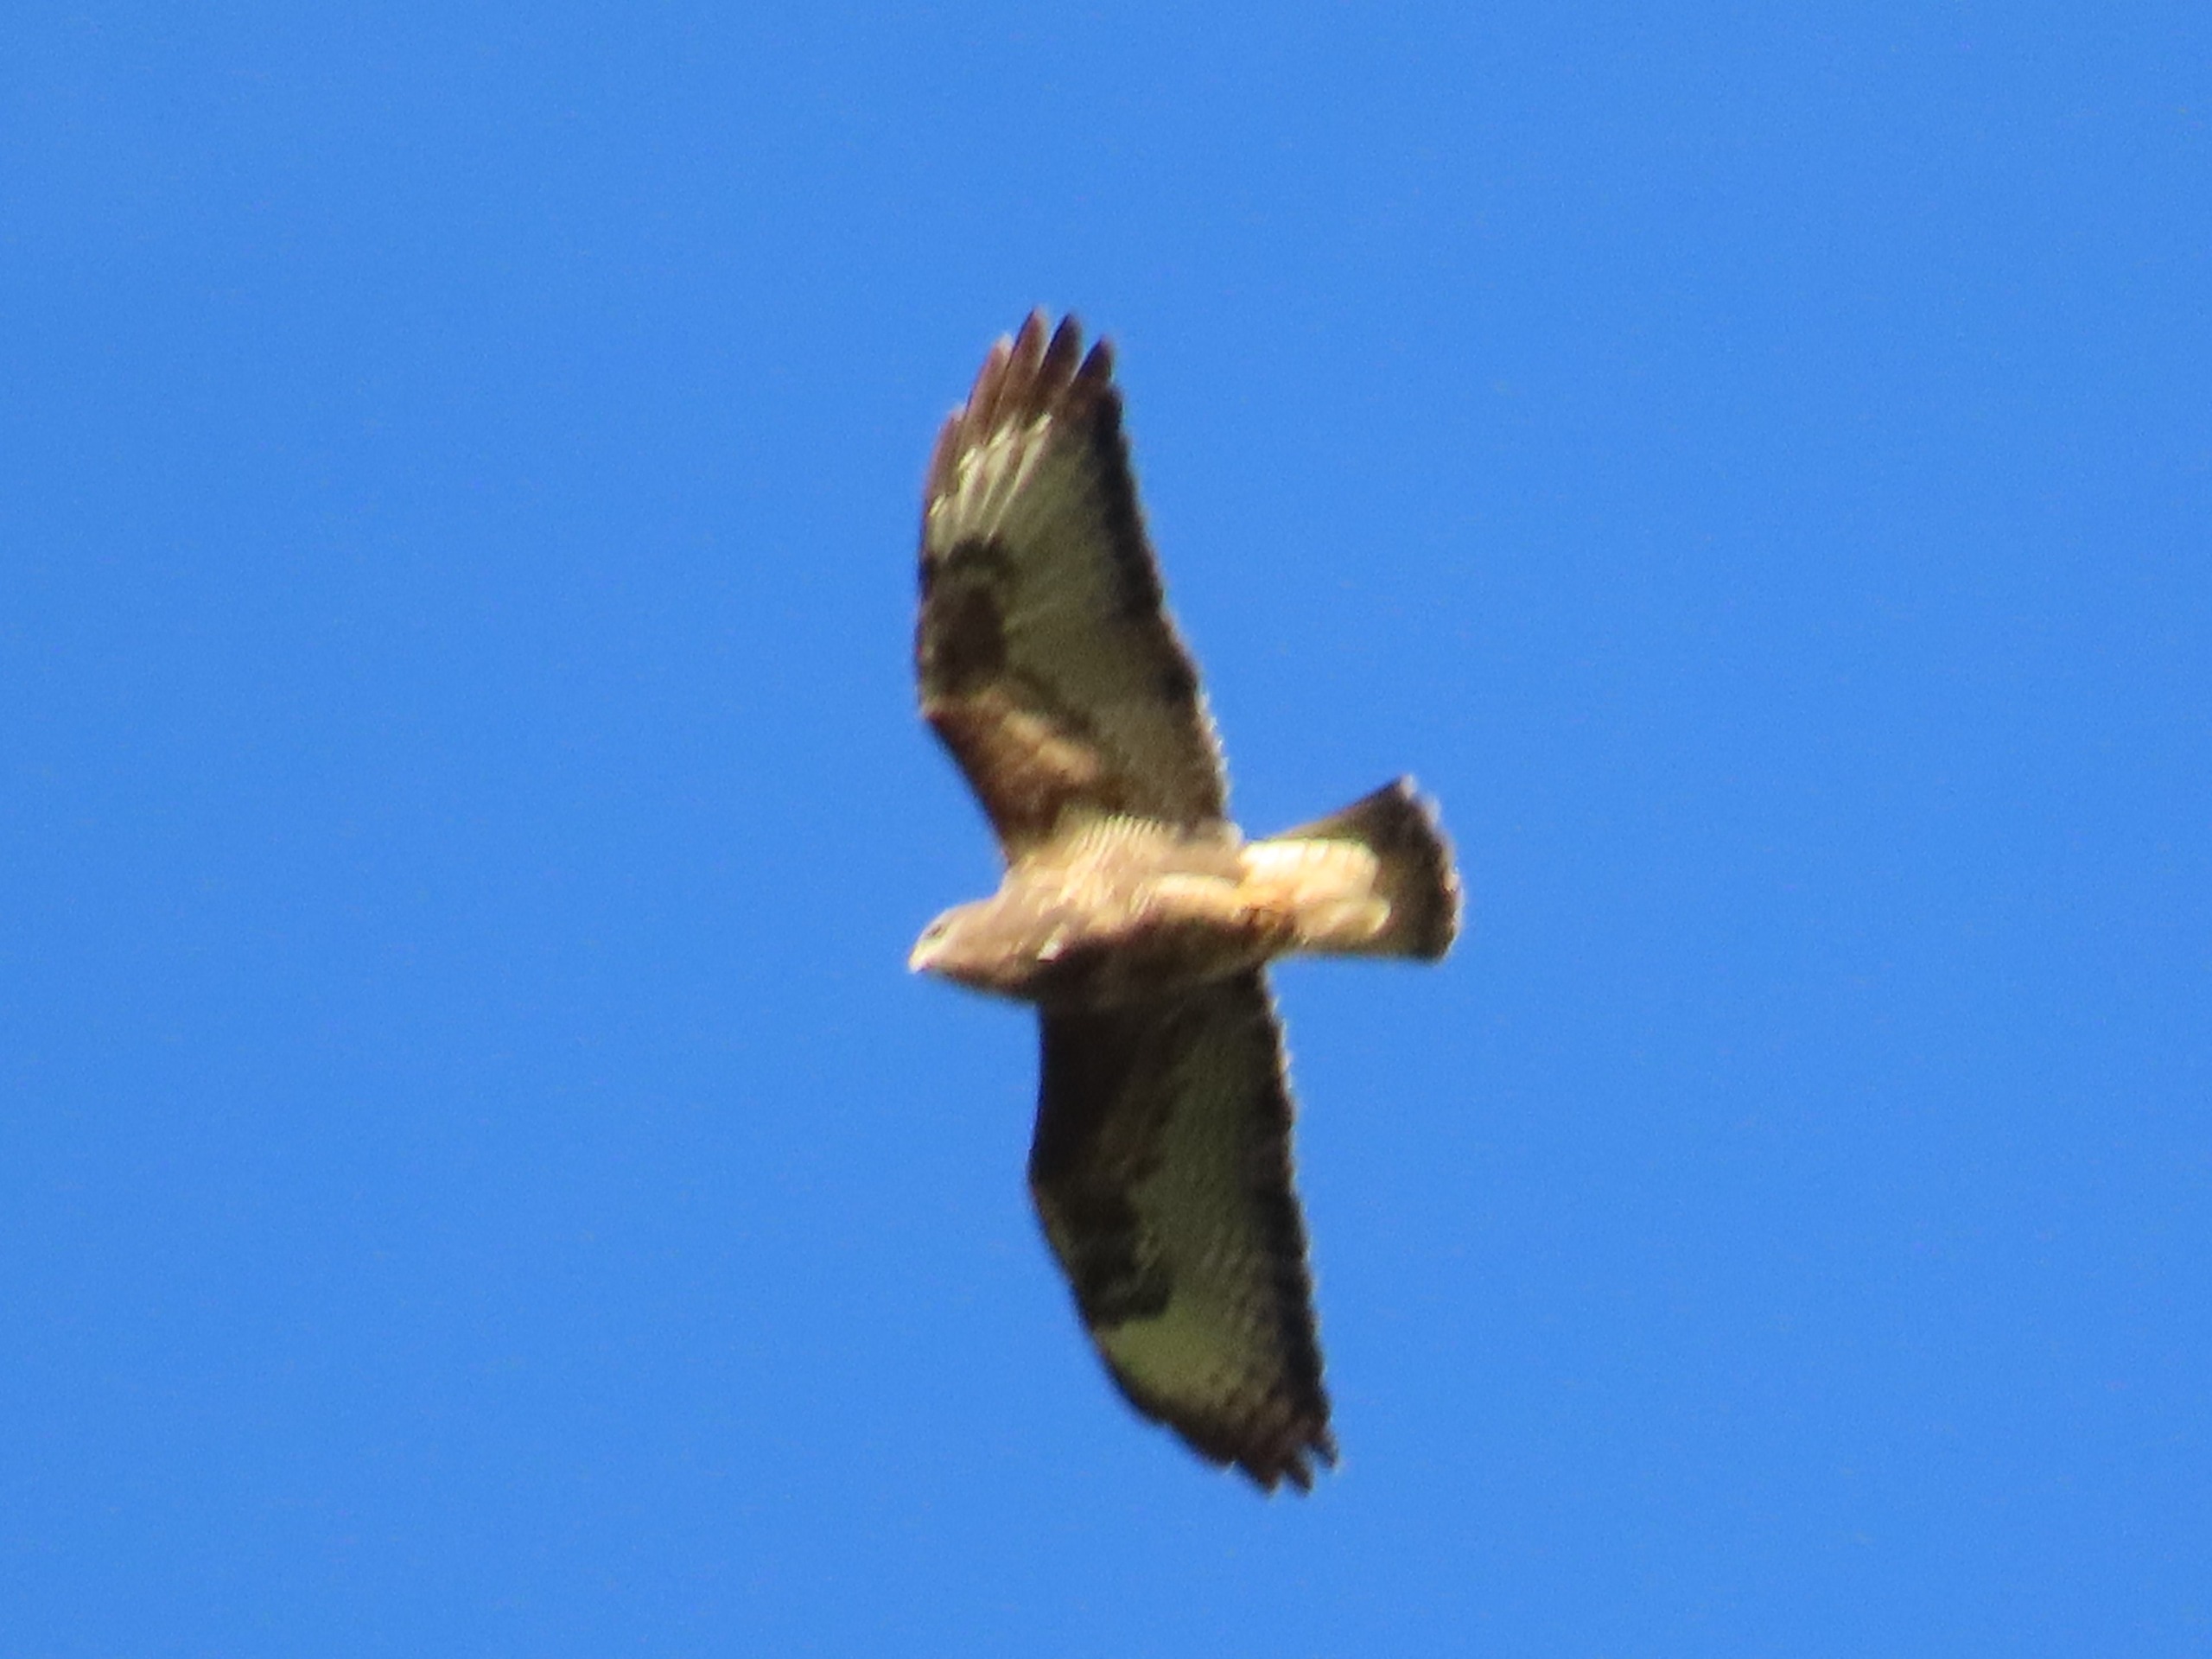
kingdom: Animalia
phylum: Chordata
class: Aves
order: Accipitriformes
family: Accipitridae
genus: Buteo
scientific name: Buteo buteo
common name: Musvåge
